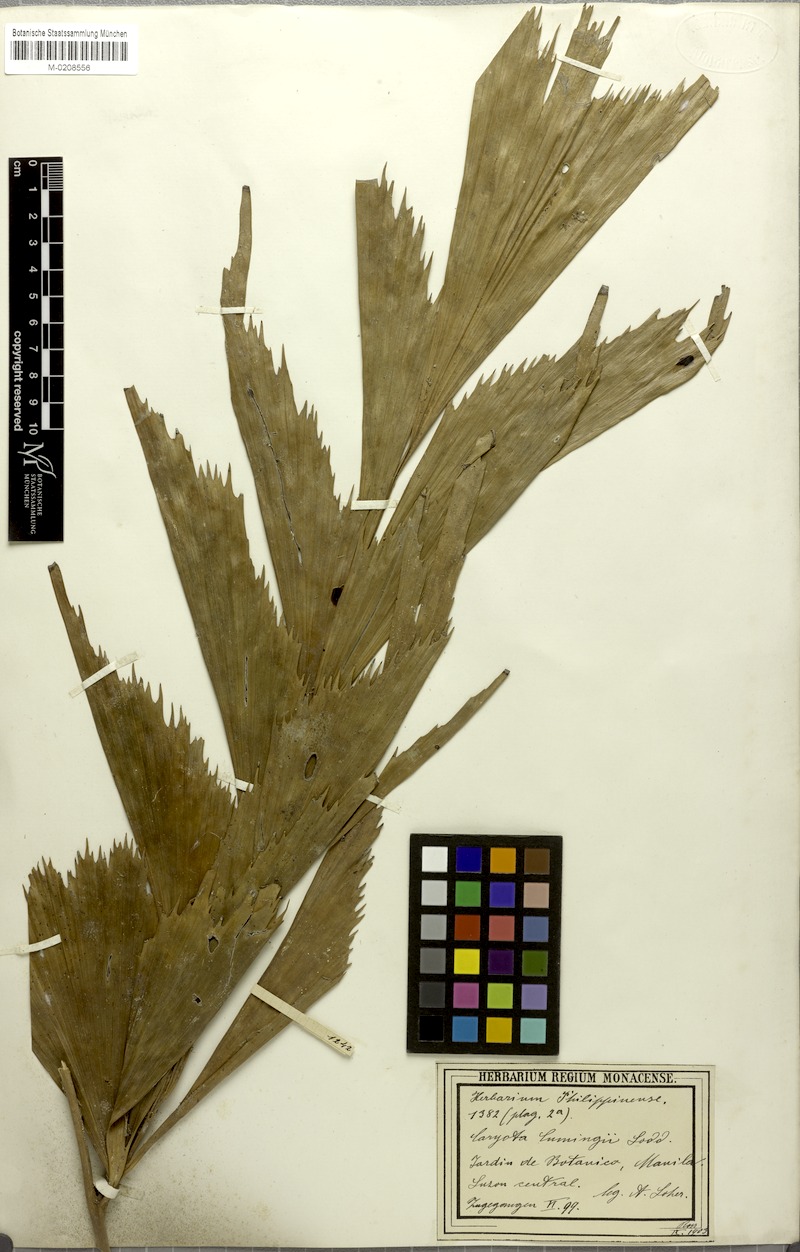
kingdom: Plantae
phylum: Tracheophyta
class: Liliopsida
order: Arecales
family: Arecaceae
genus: Caryota
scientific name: Caryota cumingii
